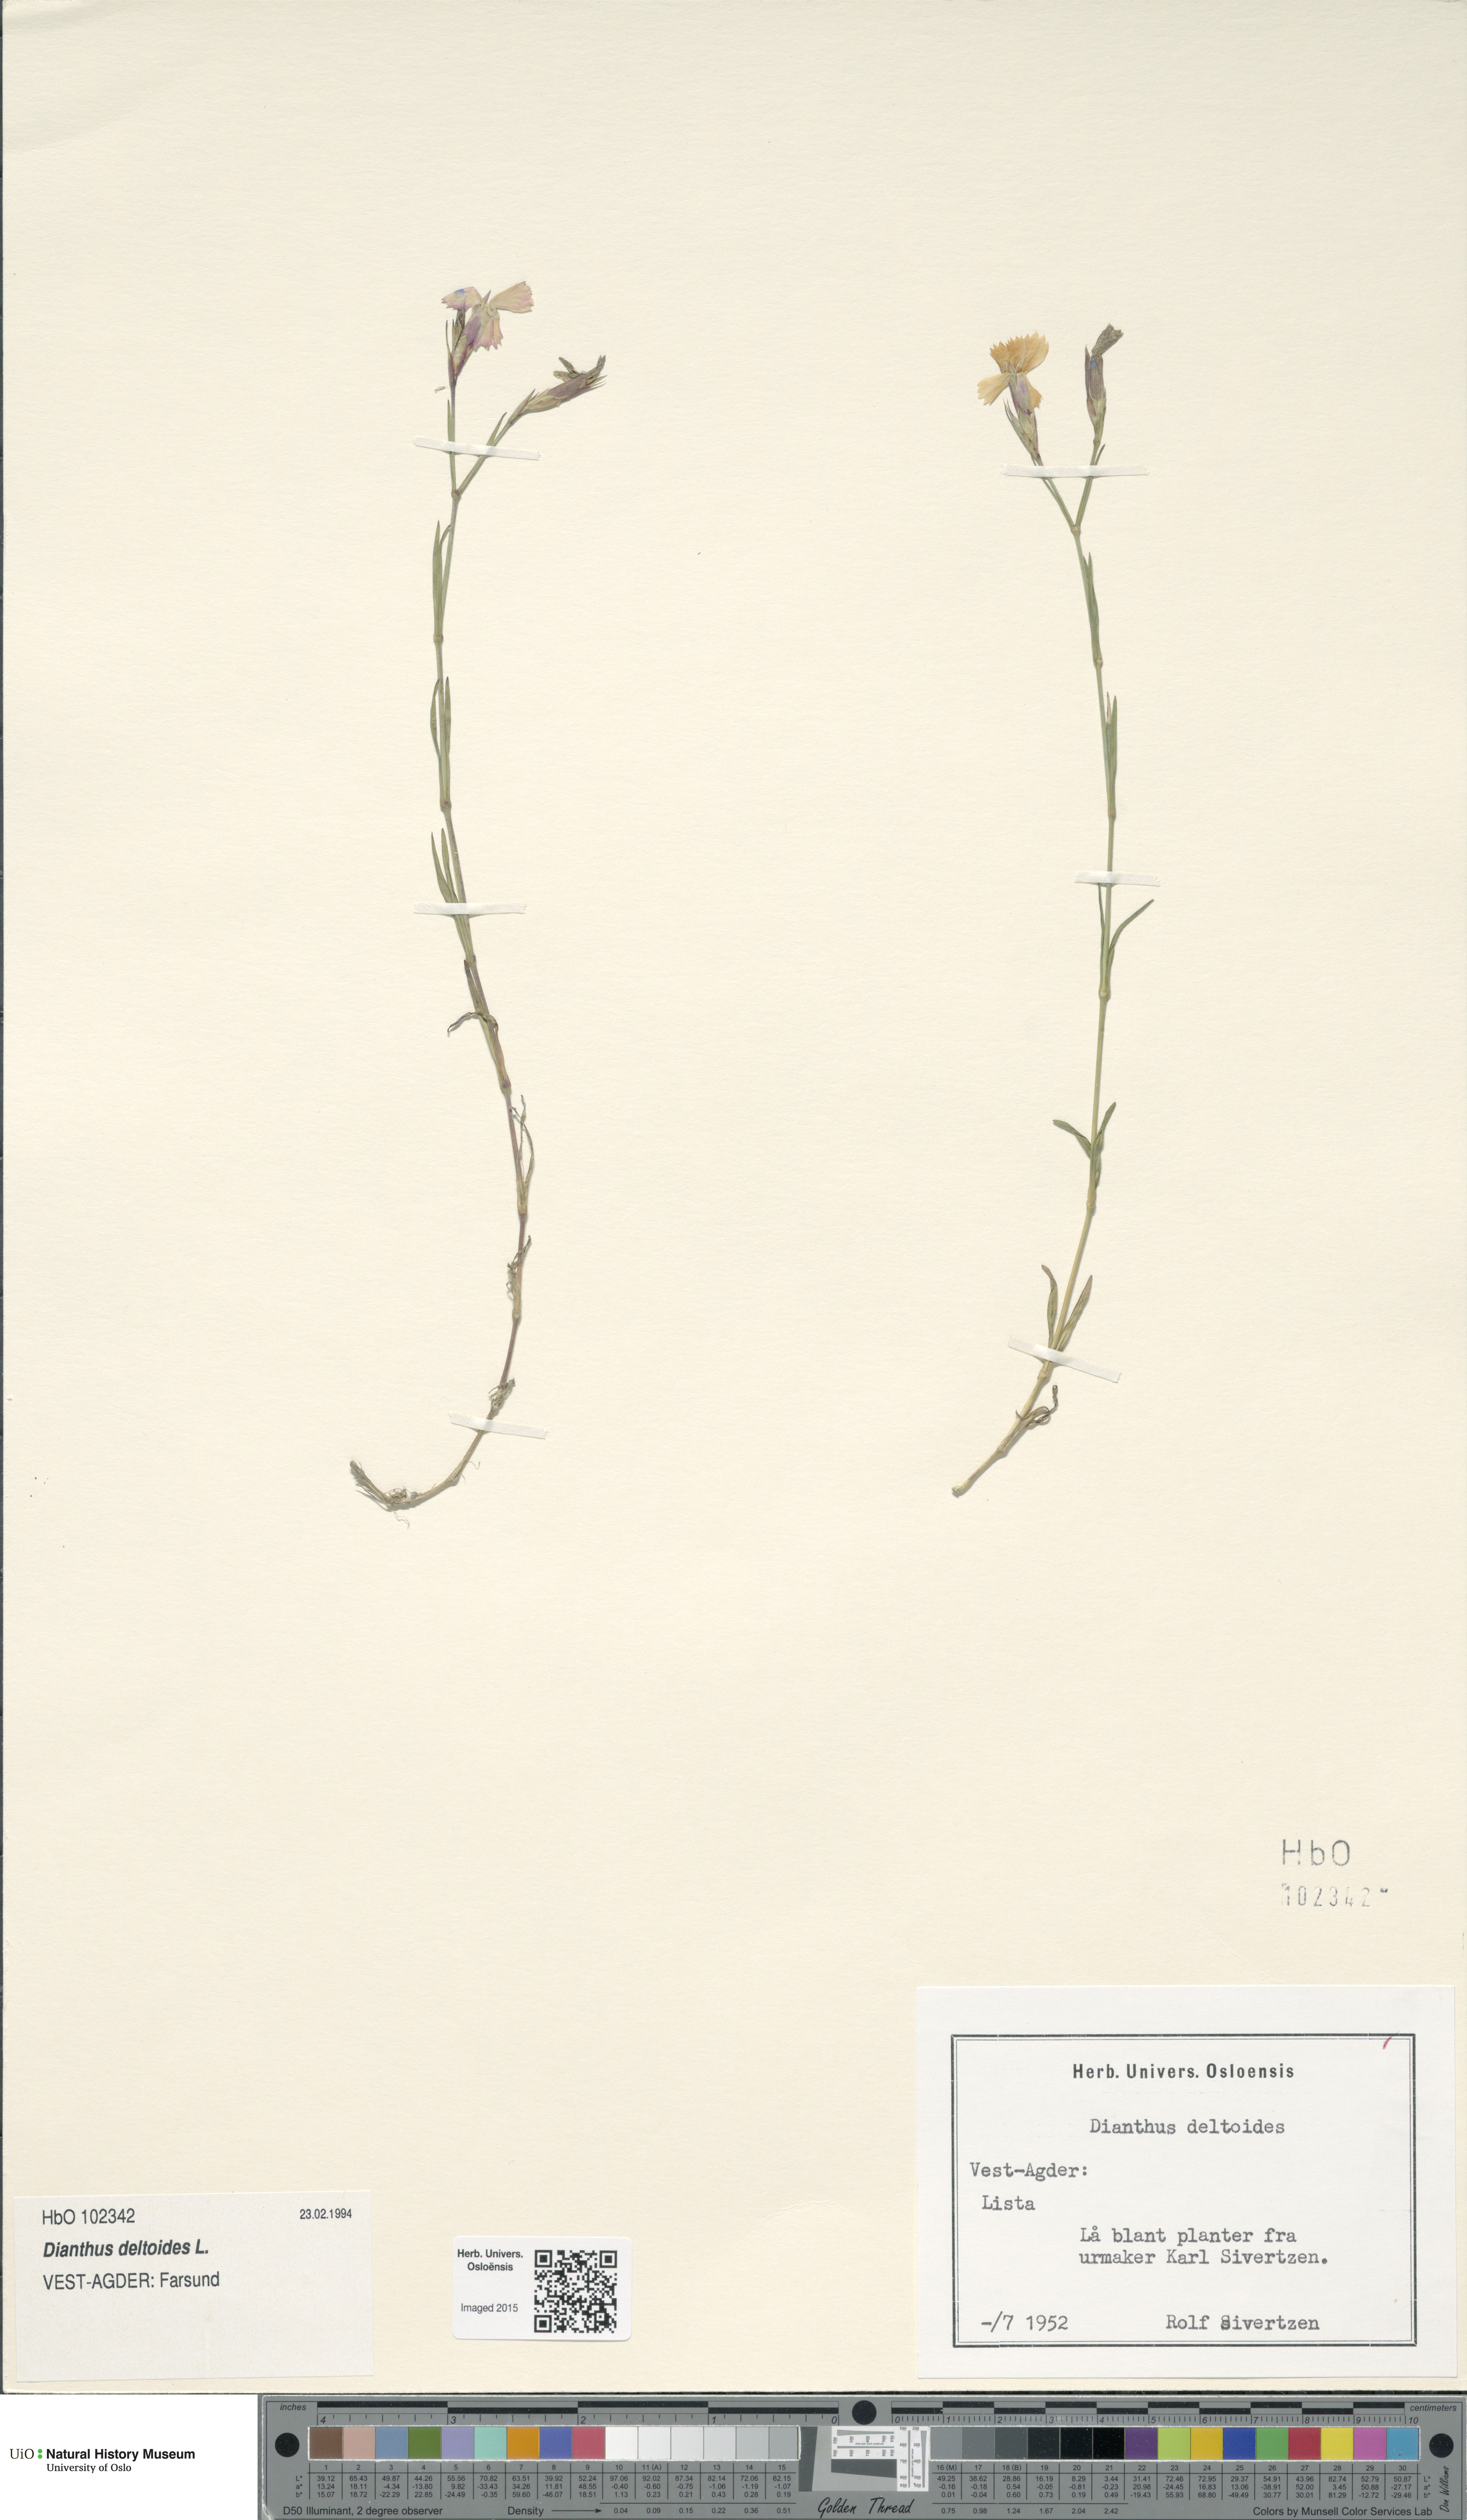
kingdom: Plantae
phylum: Tracheophyta
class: Magnoliopsida
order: Caryophyllales
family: Caryophyllaceae
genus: Dianthus
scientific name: Dianthus deltoides
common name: Maiden pink
